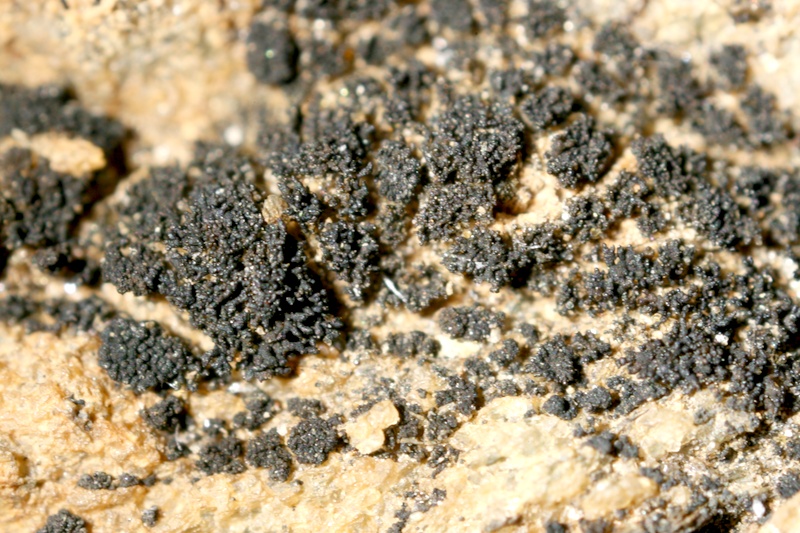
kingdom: Fungi
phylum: Ascomycota
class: Lichinomycetes
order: Lichinales
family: Lichinaceae
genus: Lichinella
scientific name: Lichinella stipatula
